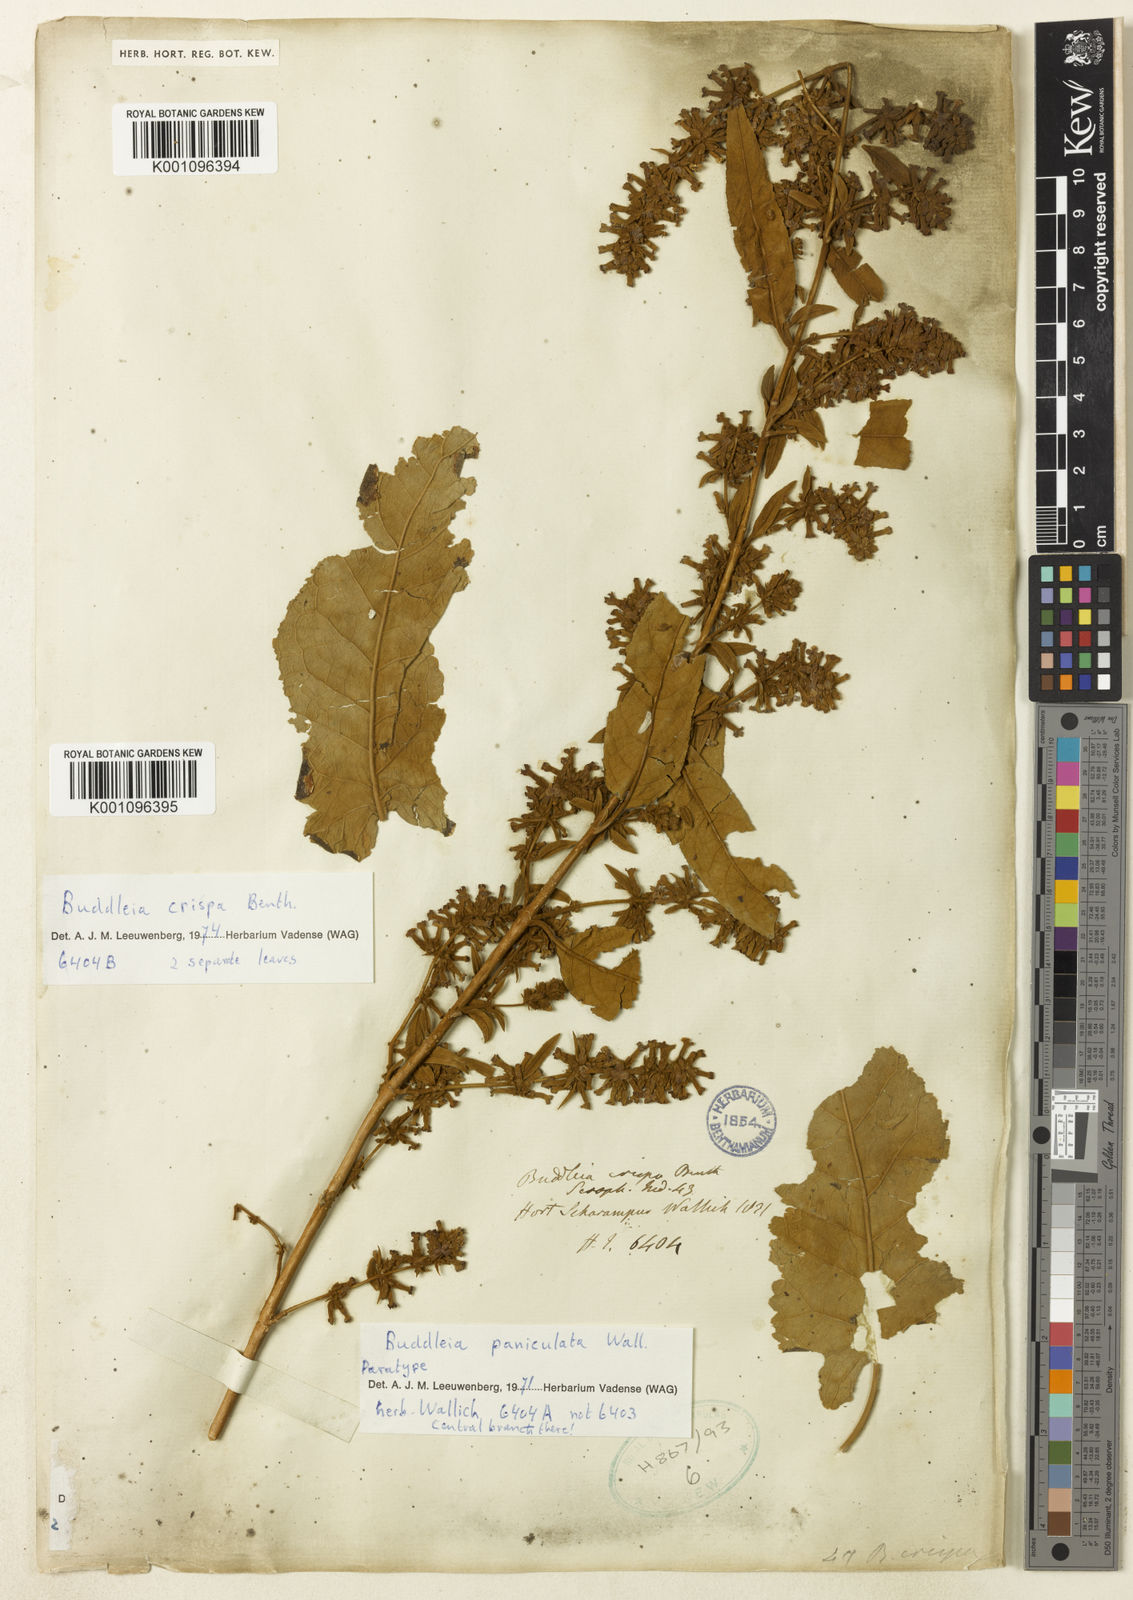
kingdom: Plantae
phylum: Tracheophyta
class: Magnoliopsida
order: Lamiales
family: Scrophulariaceae
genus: Buddleja
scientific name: Buddleja paniculata
